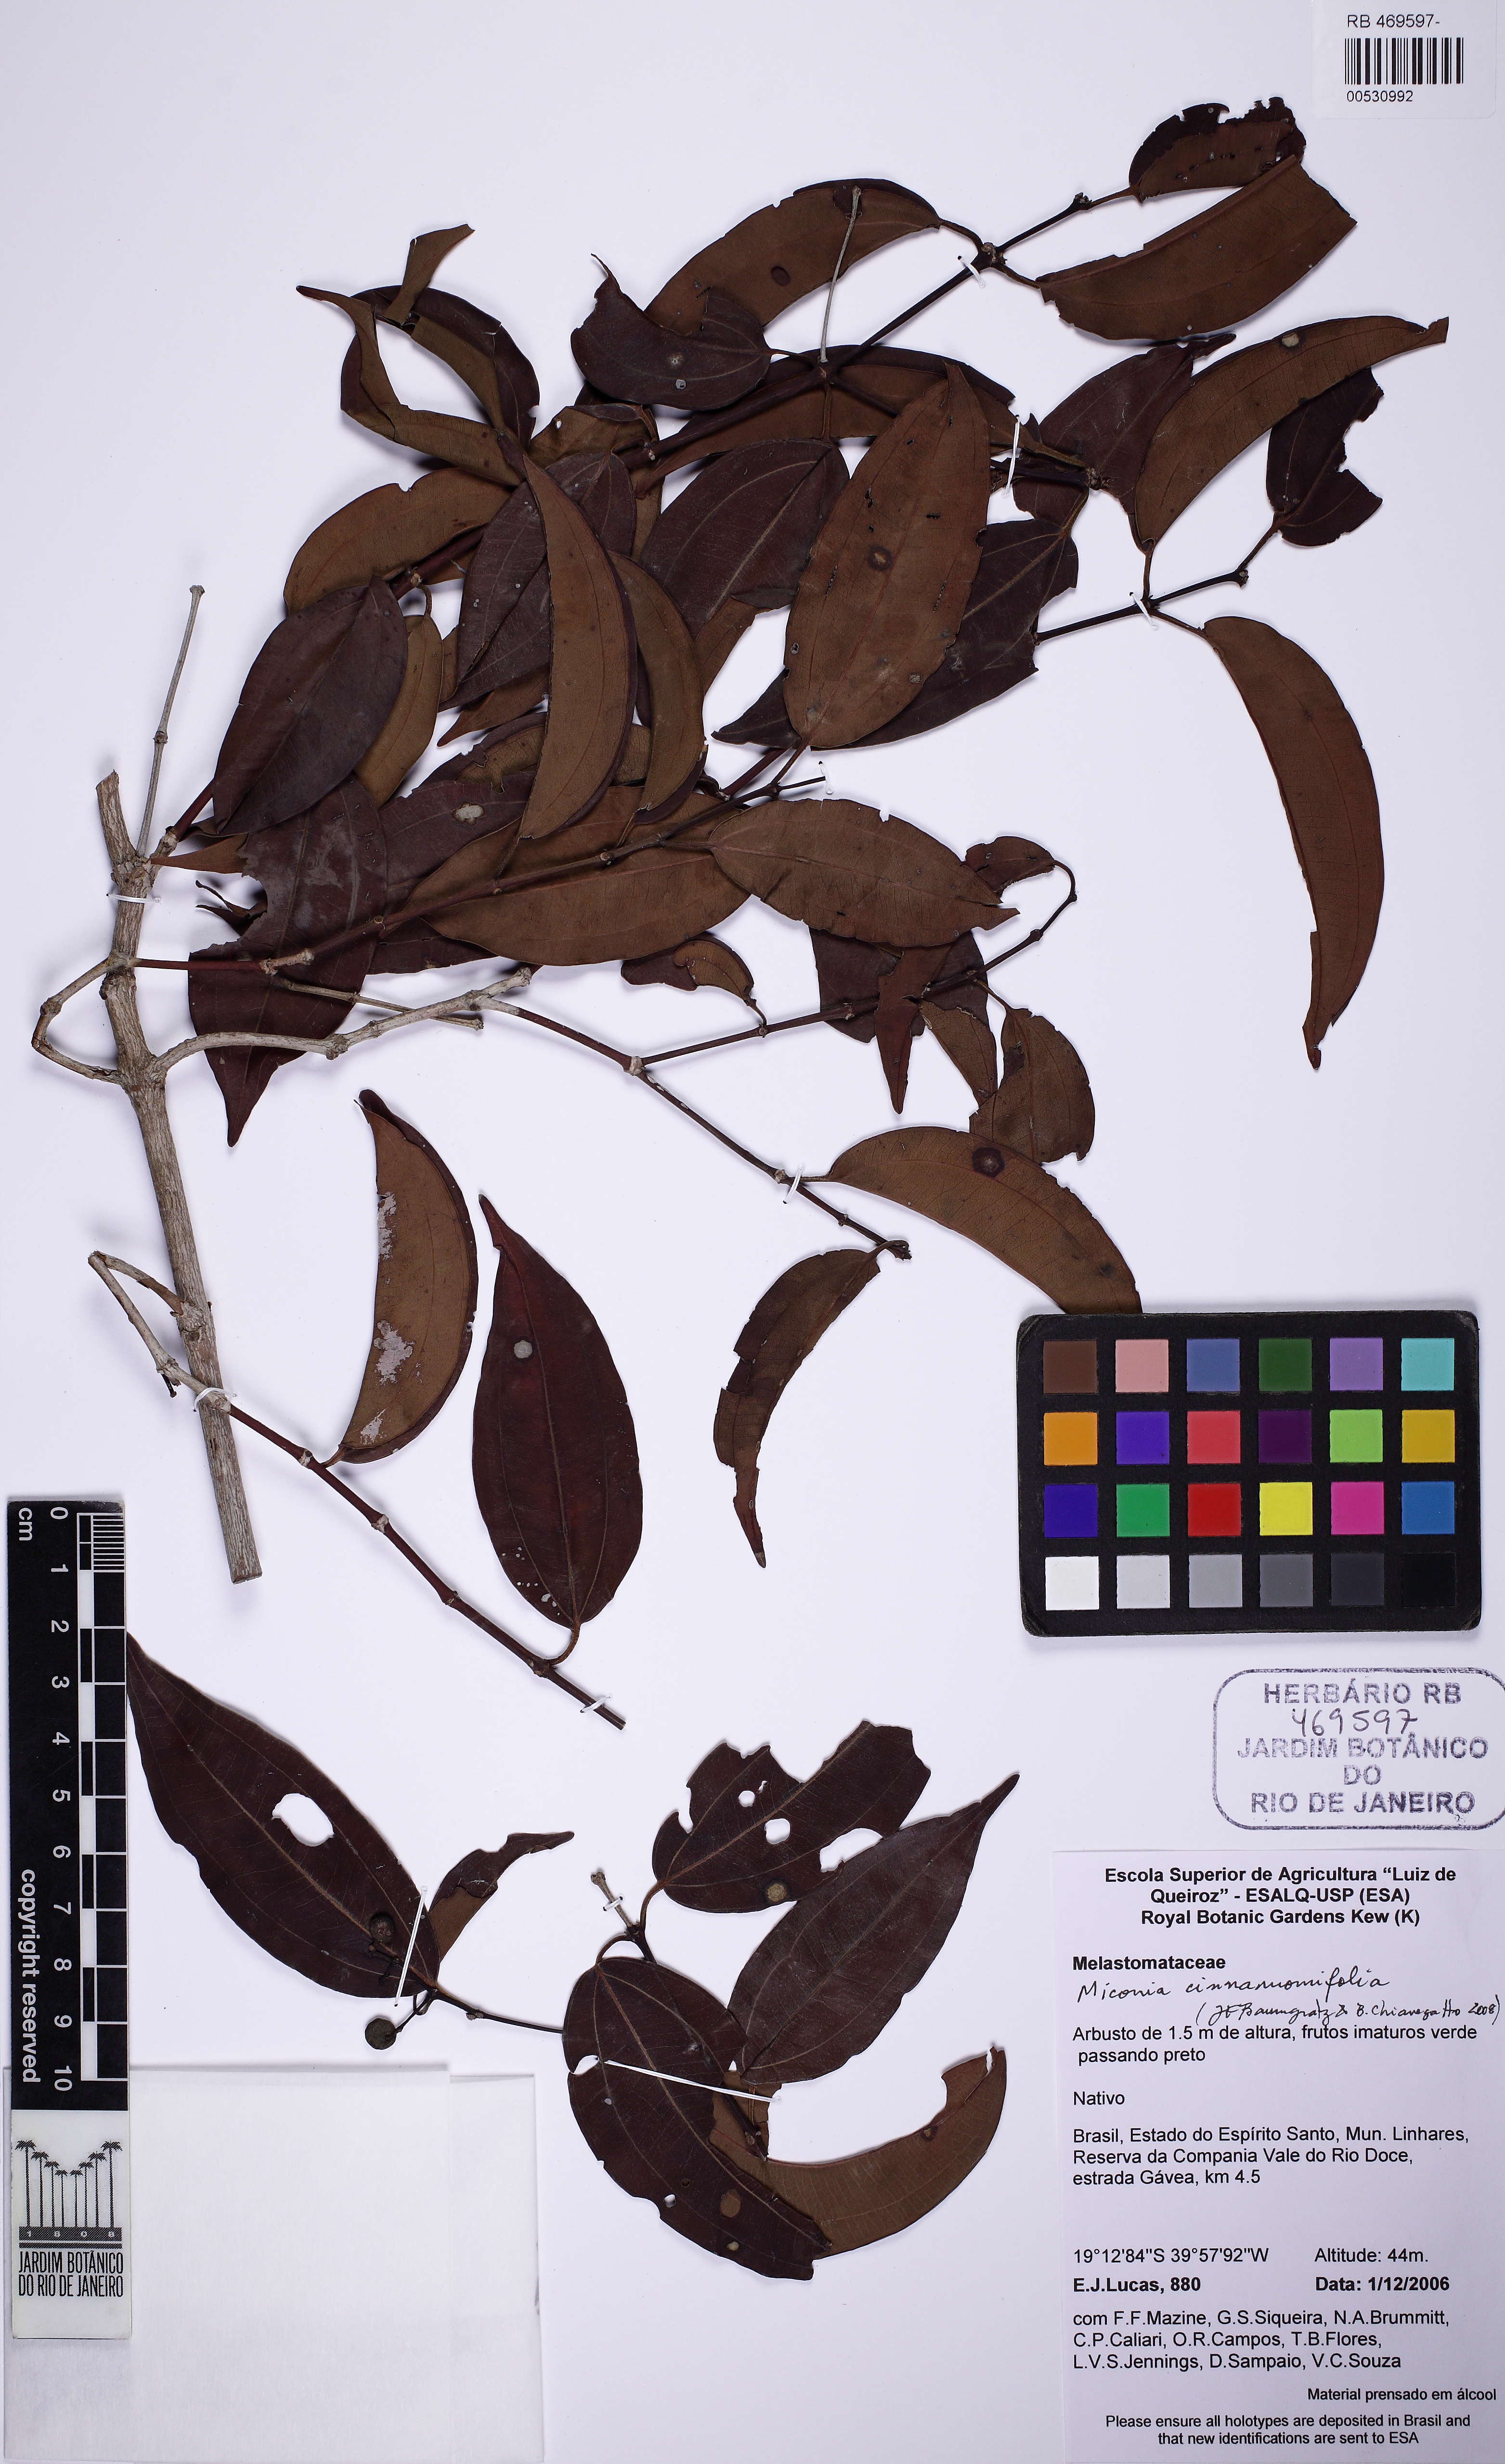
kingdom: Plantae
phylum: Tracheophyta
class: Magnoliopsida
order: Myrtales
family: Melastomataceae
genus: Miconia
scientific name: Miconia cinnamomifolia
